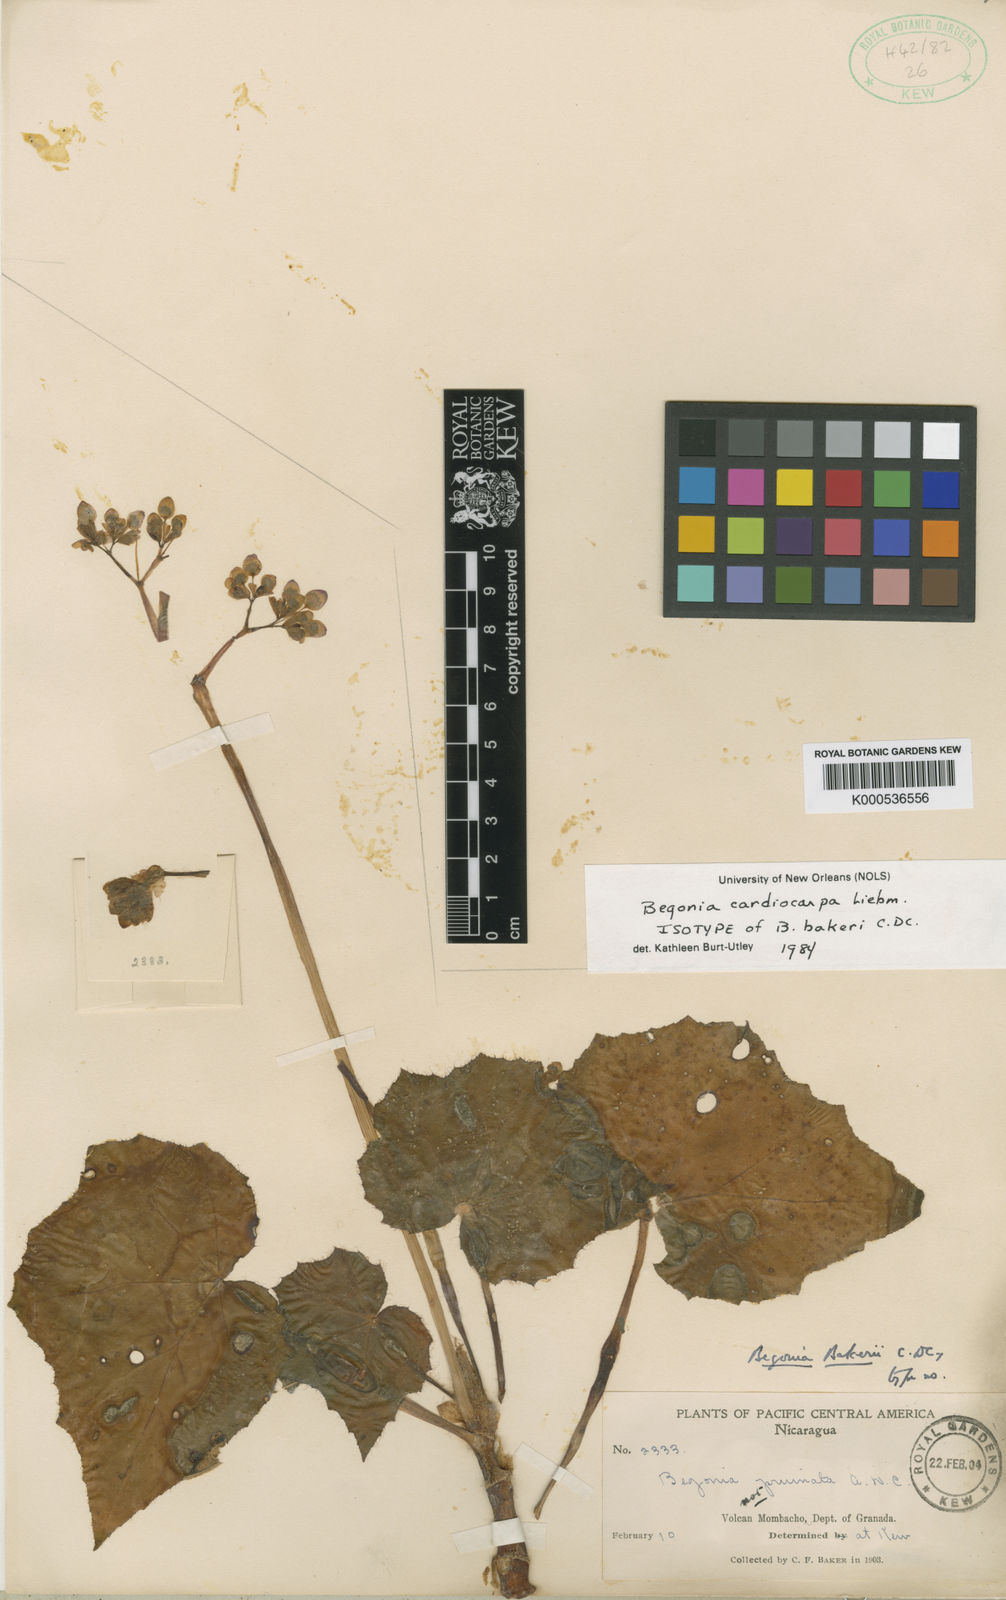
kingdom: Plantae
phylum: Tracheophyta
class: Magnoliopsida
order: Cucurbitales
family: Begoniaceae
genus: Begonia
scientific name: Begonia cardiocarpa
